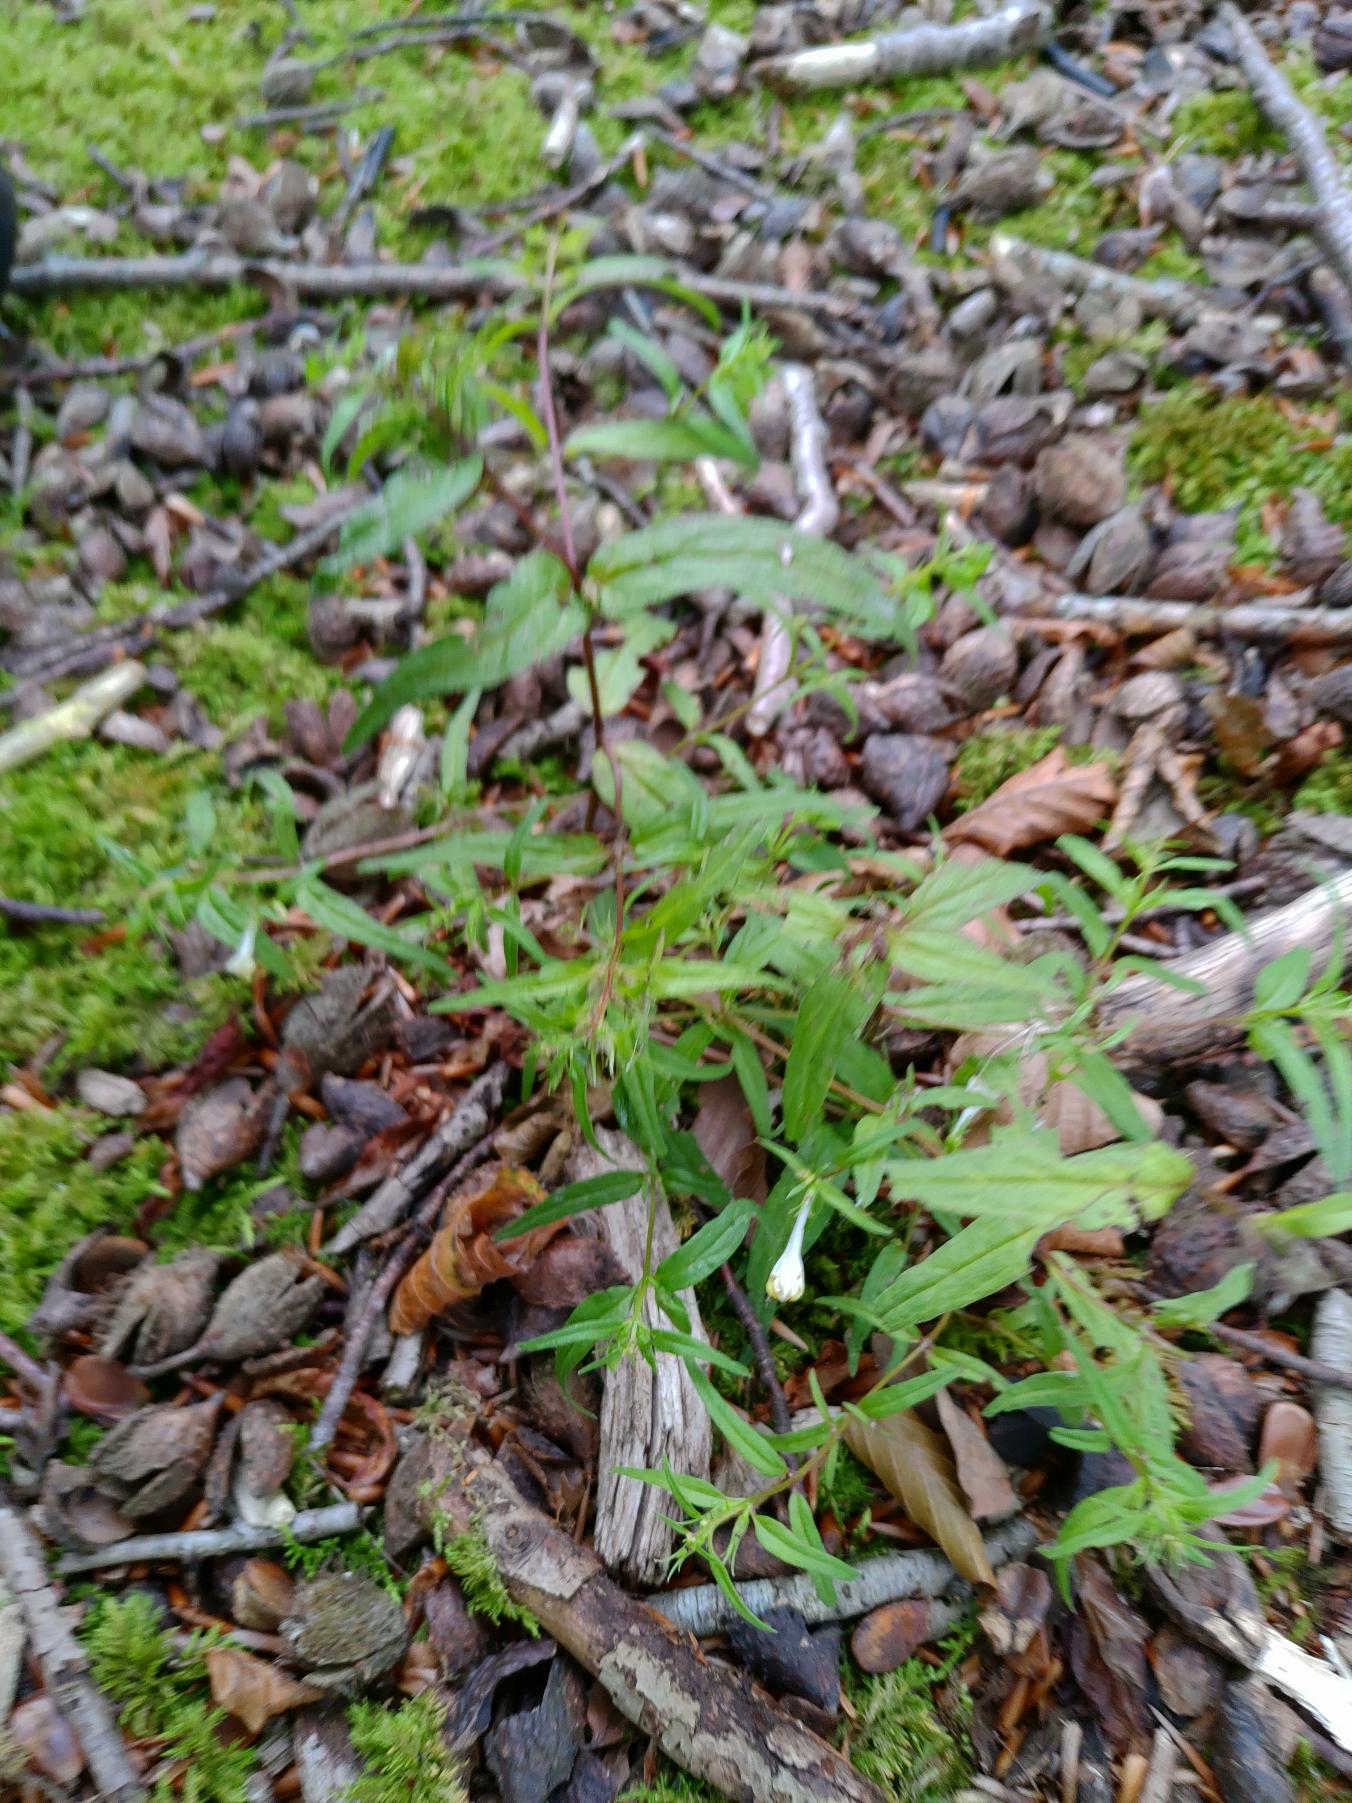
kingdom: Plantae
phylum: Tracheophyta
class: Magnoliopsida
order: Lamiales
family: Orobanchaceae
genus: Melampyrum
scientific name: Melampyrum pratense
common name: Almindelig kohvede
